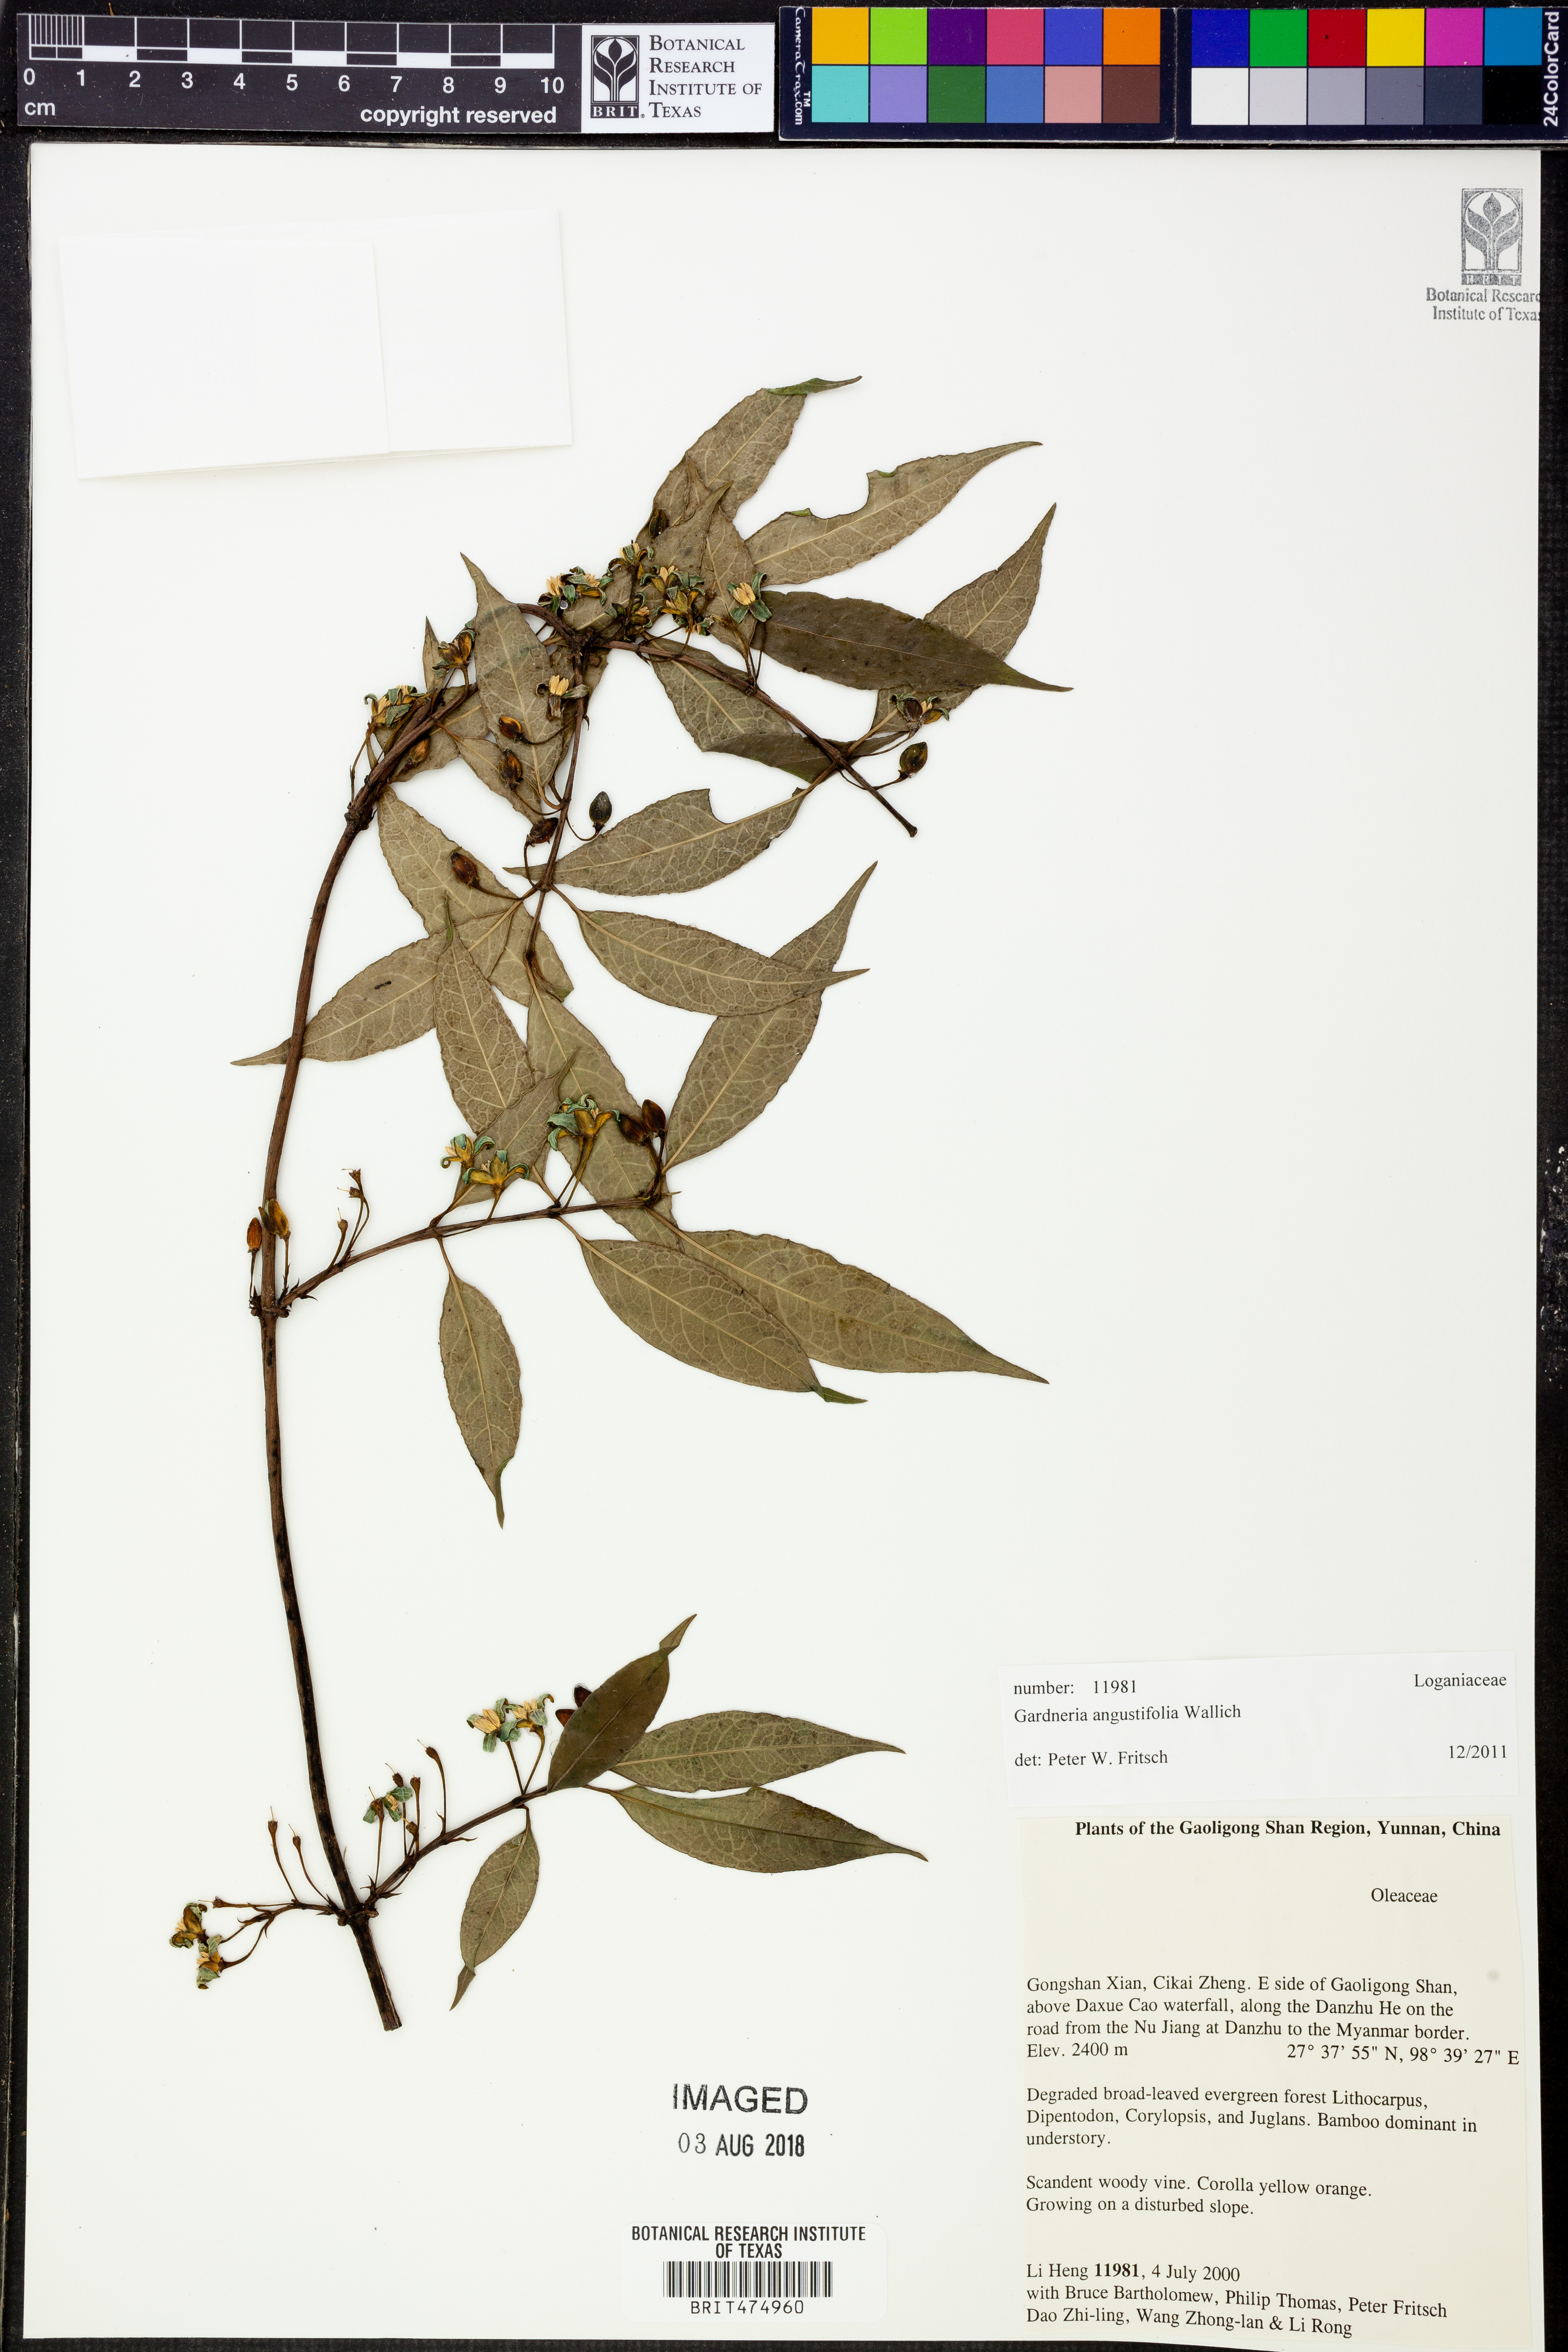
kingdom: Plantae
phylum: Tracheophyta
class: Magnoliopsida
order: Gentianales
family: Loganiaceae
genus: Gardneria
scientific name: Gardneria angustifolia
